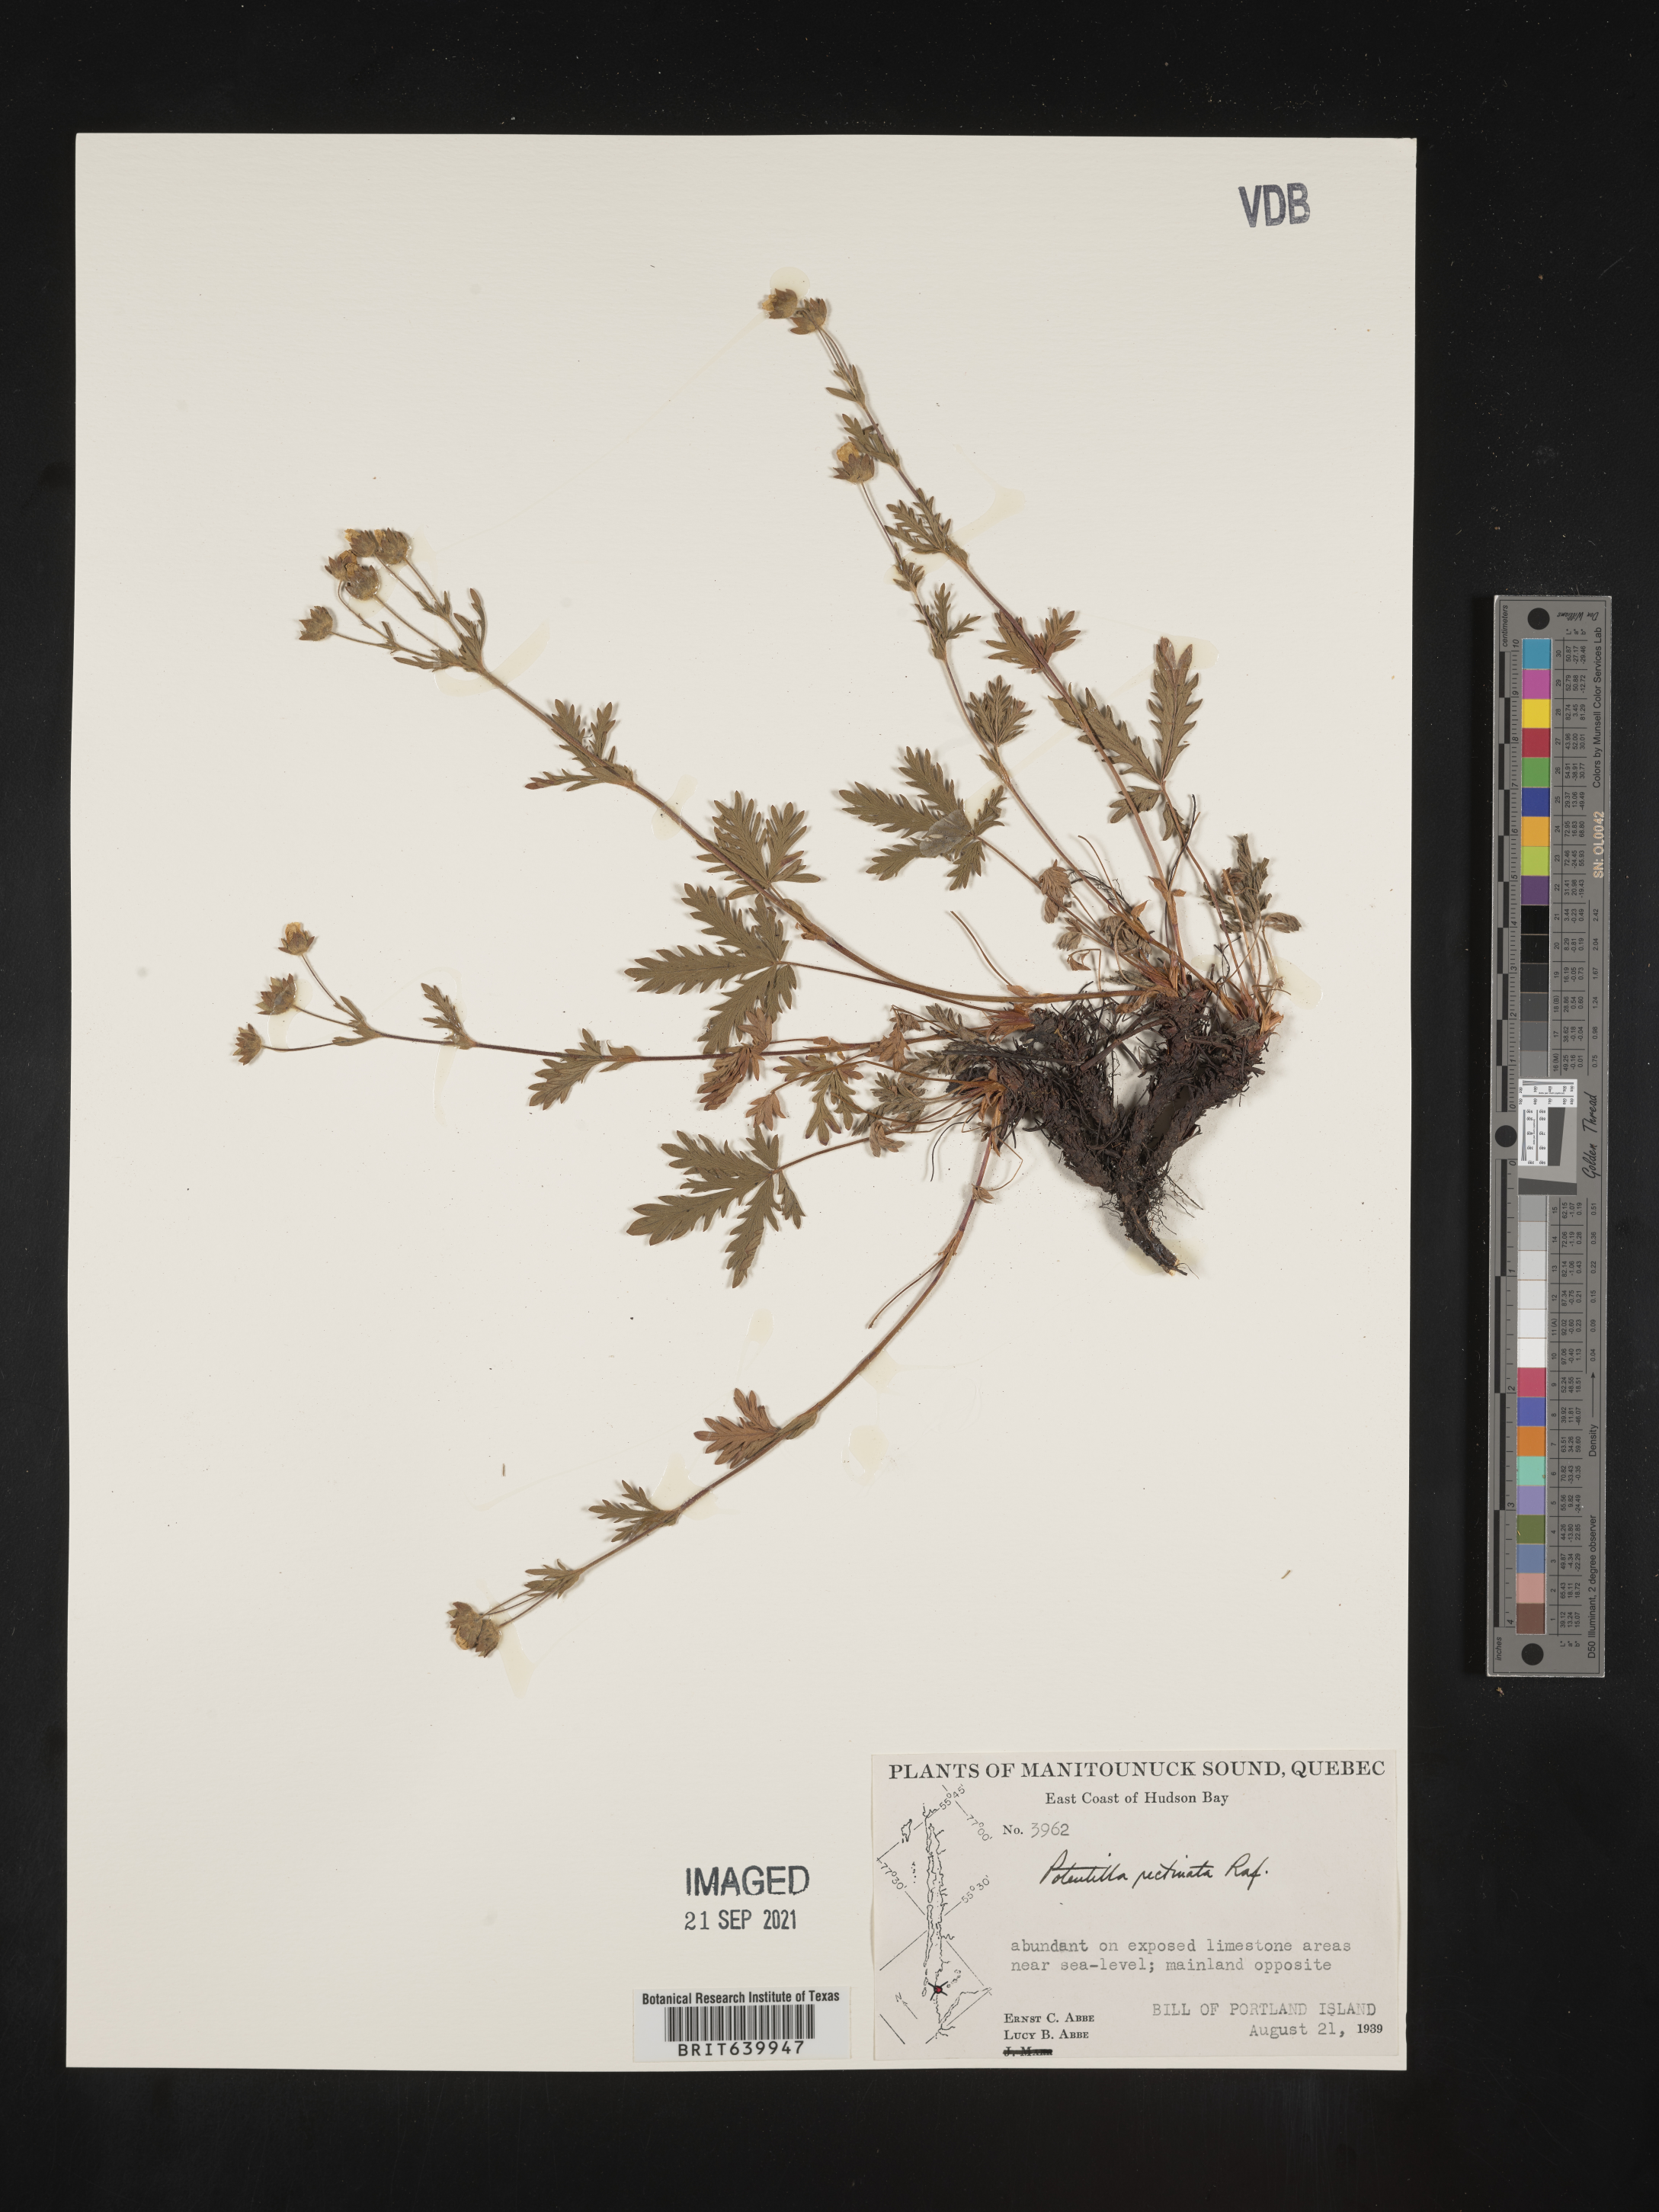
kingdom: Plantae
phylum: Tracheophyta
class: Magnoliopsida
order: Rosales
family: Rosaceae
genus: Potentilla
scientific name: Potentilla
